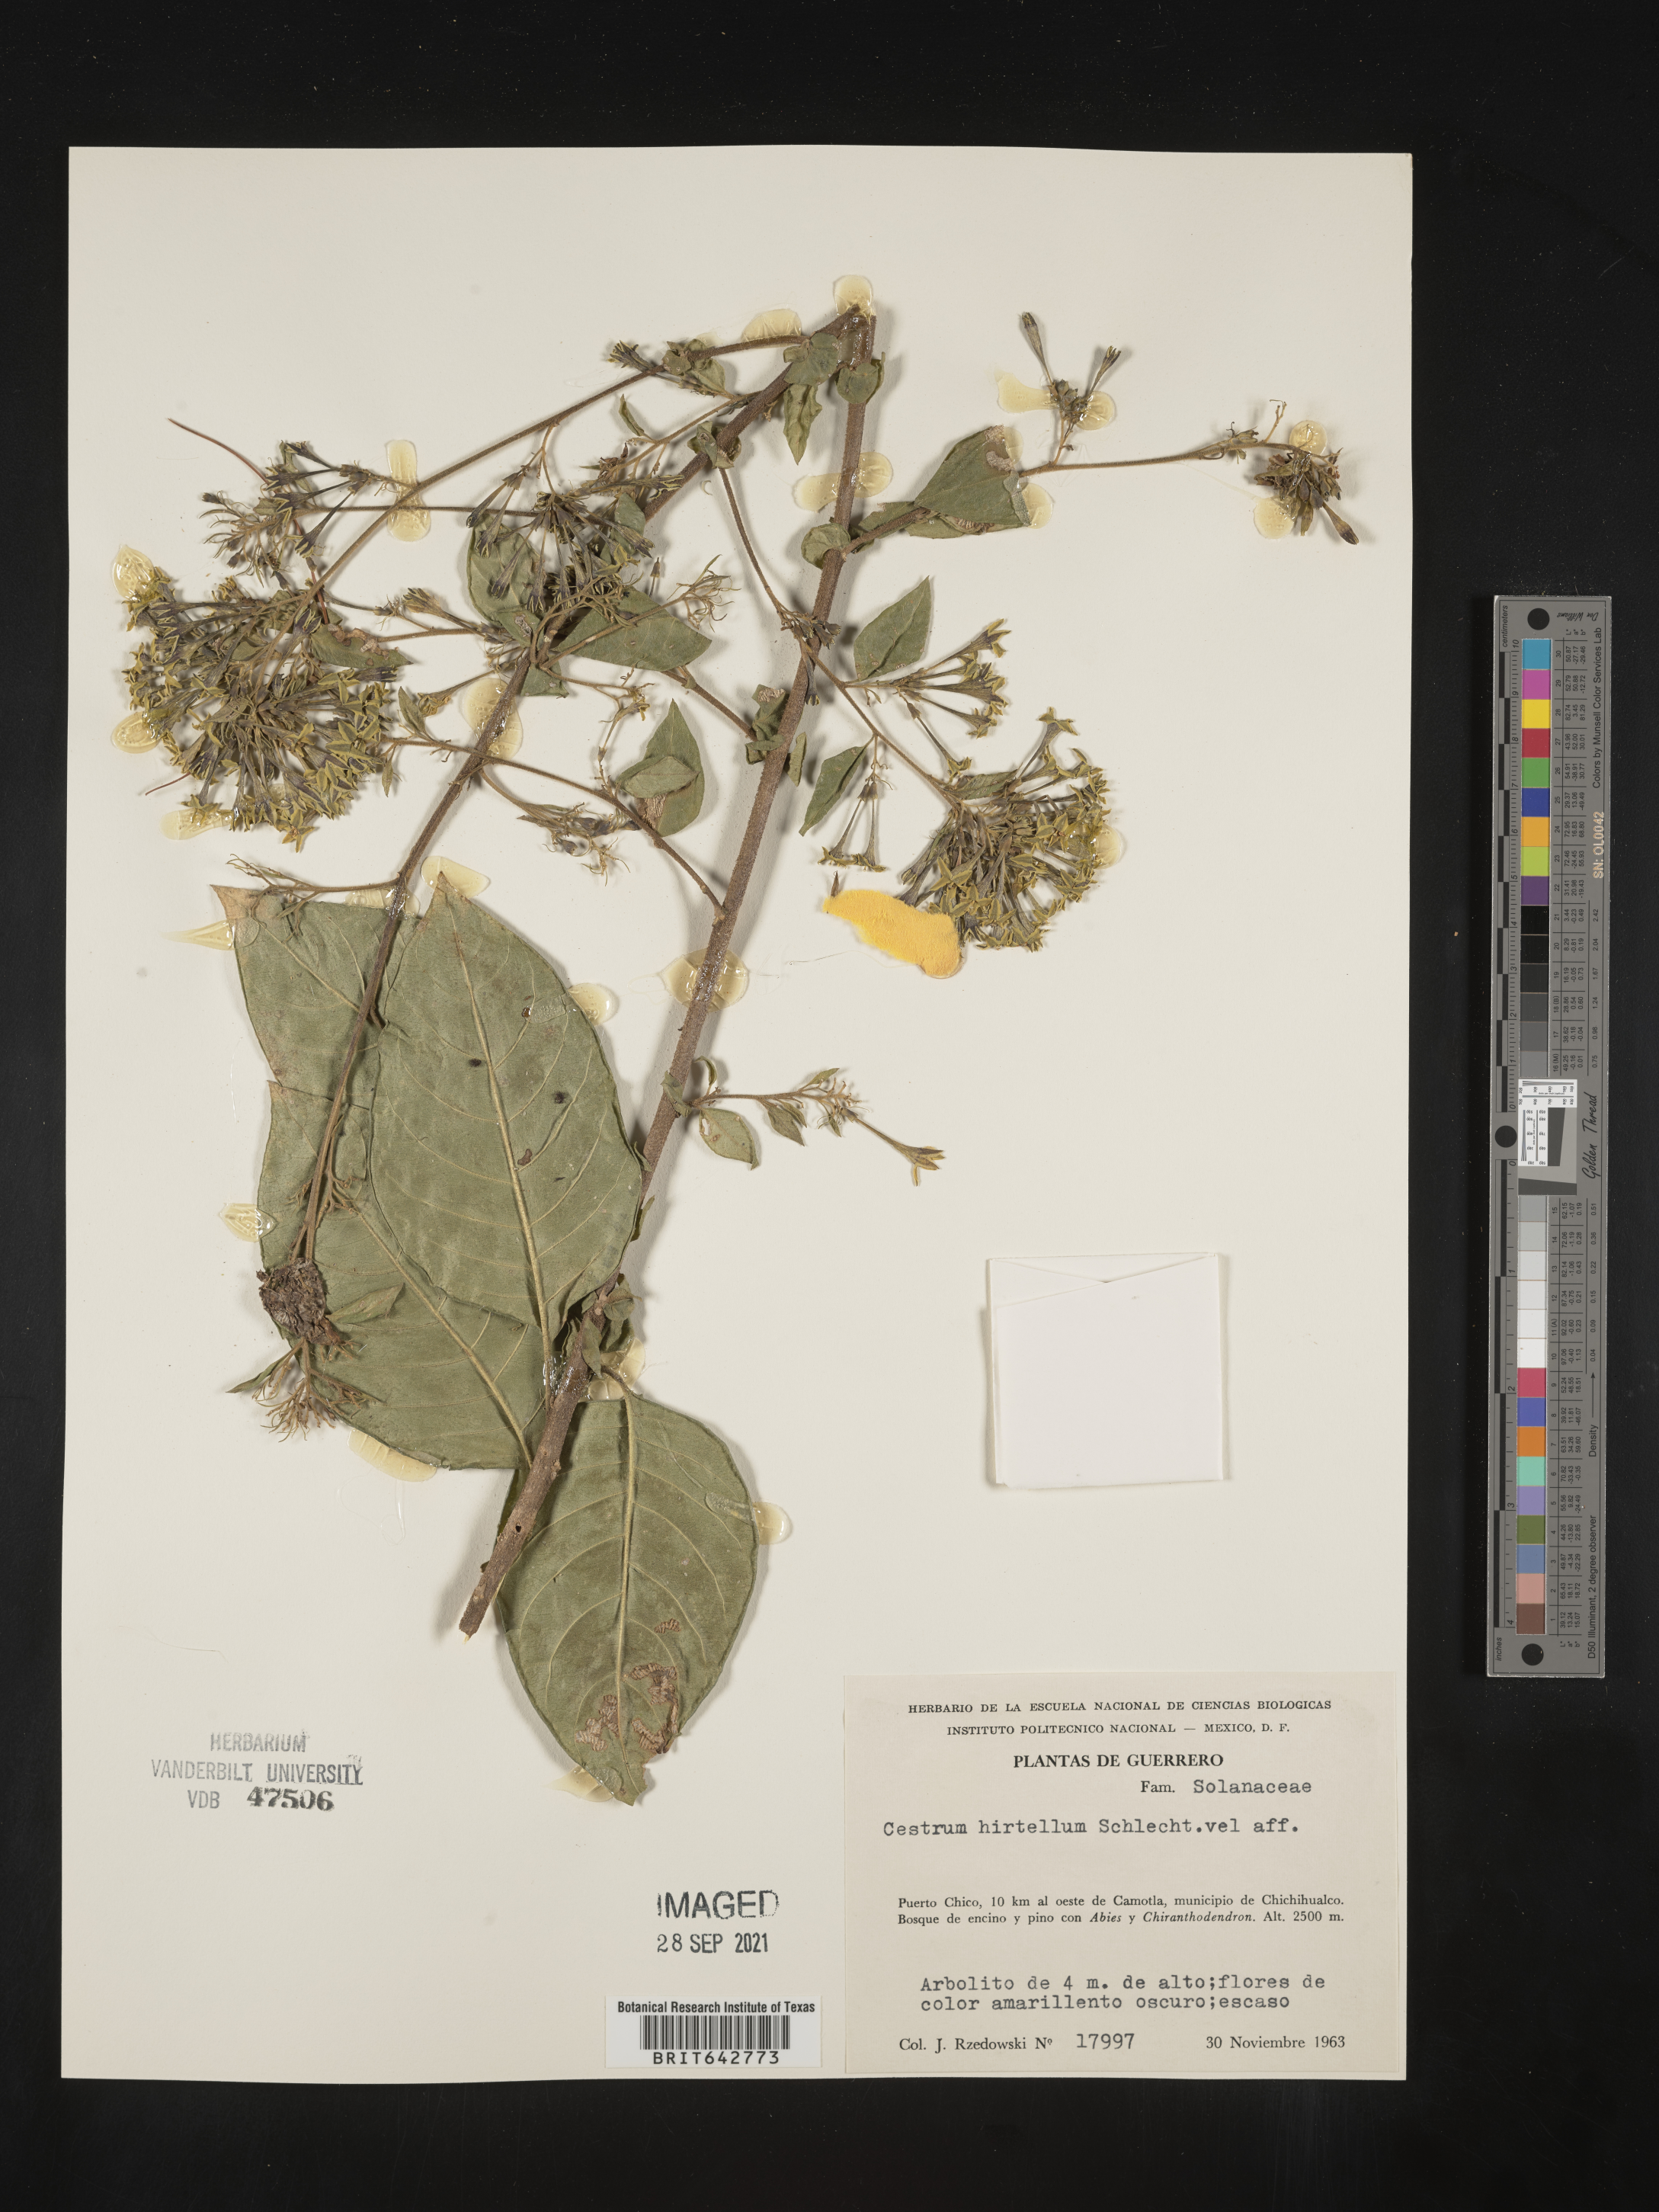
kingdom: Plantae
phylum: Tracheophyta
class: Magnoliopsida
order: Solanales
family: Solanaceae
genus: Cestrum
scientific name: Cestrum
